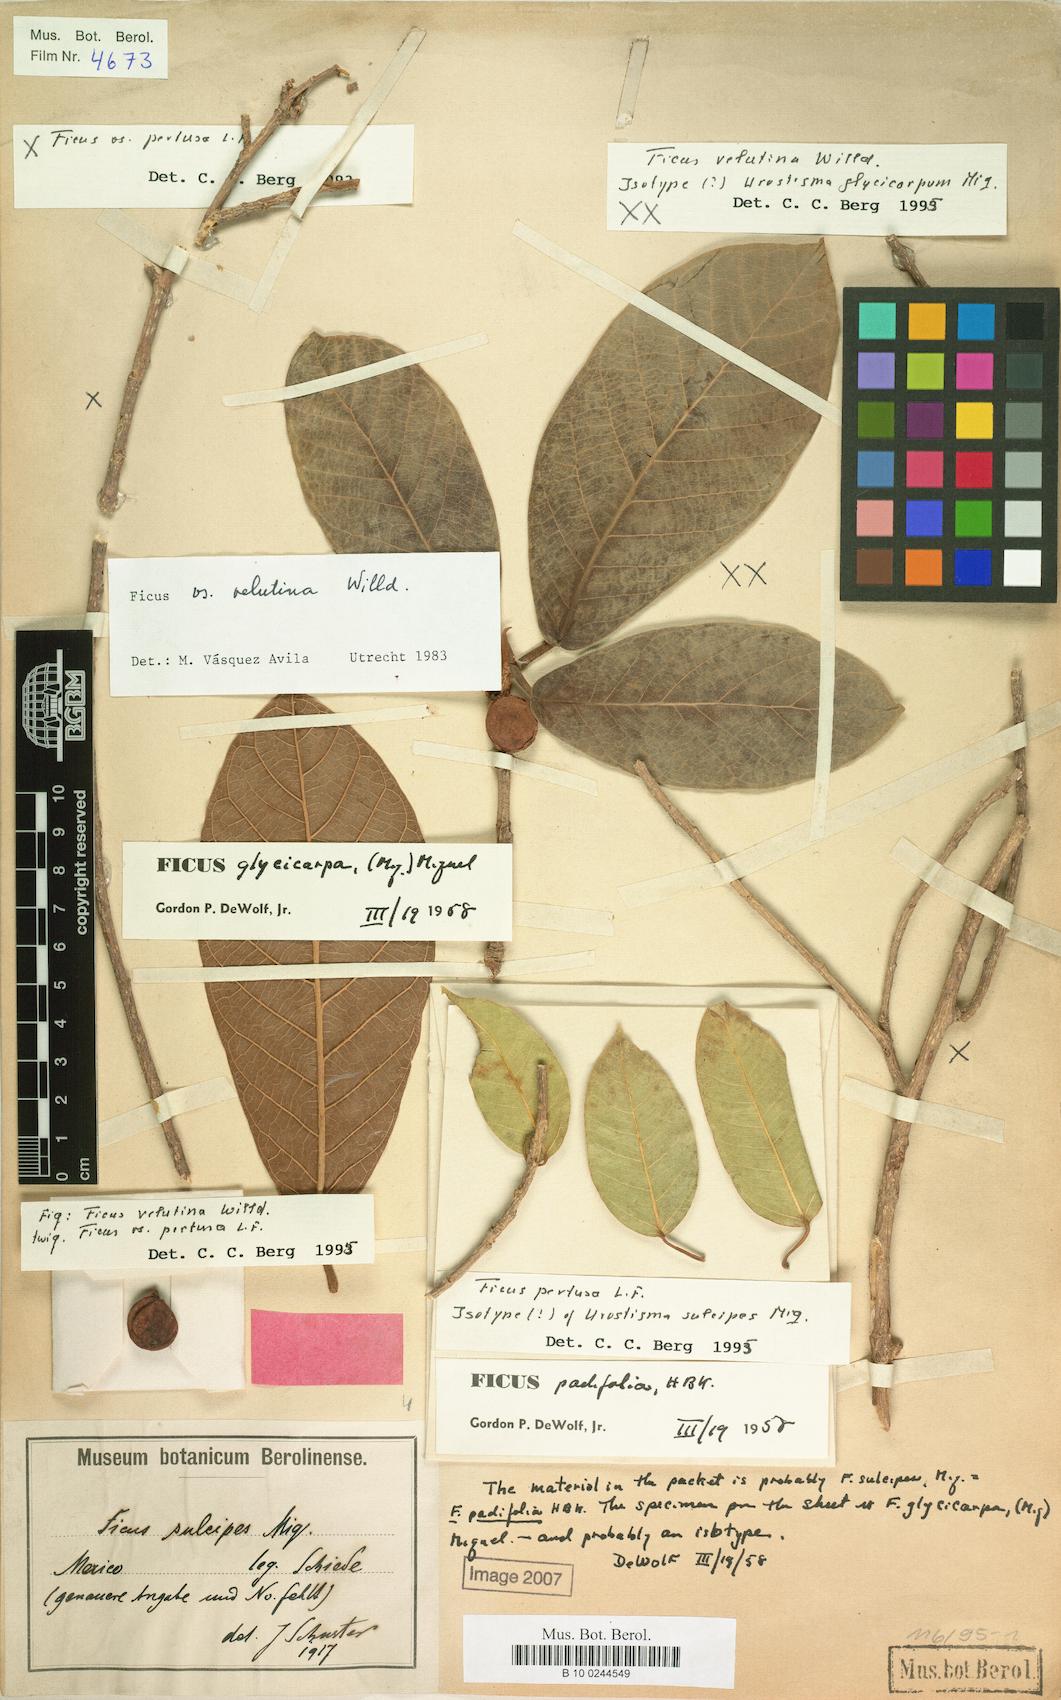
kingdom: Plantae
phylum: Tracheophyta
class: Magnoliopsida
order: Rosales
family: Moraceae
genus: Ficus
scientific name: Ficus velutina
